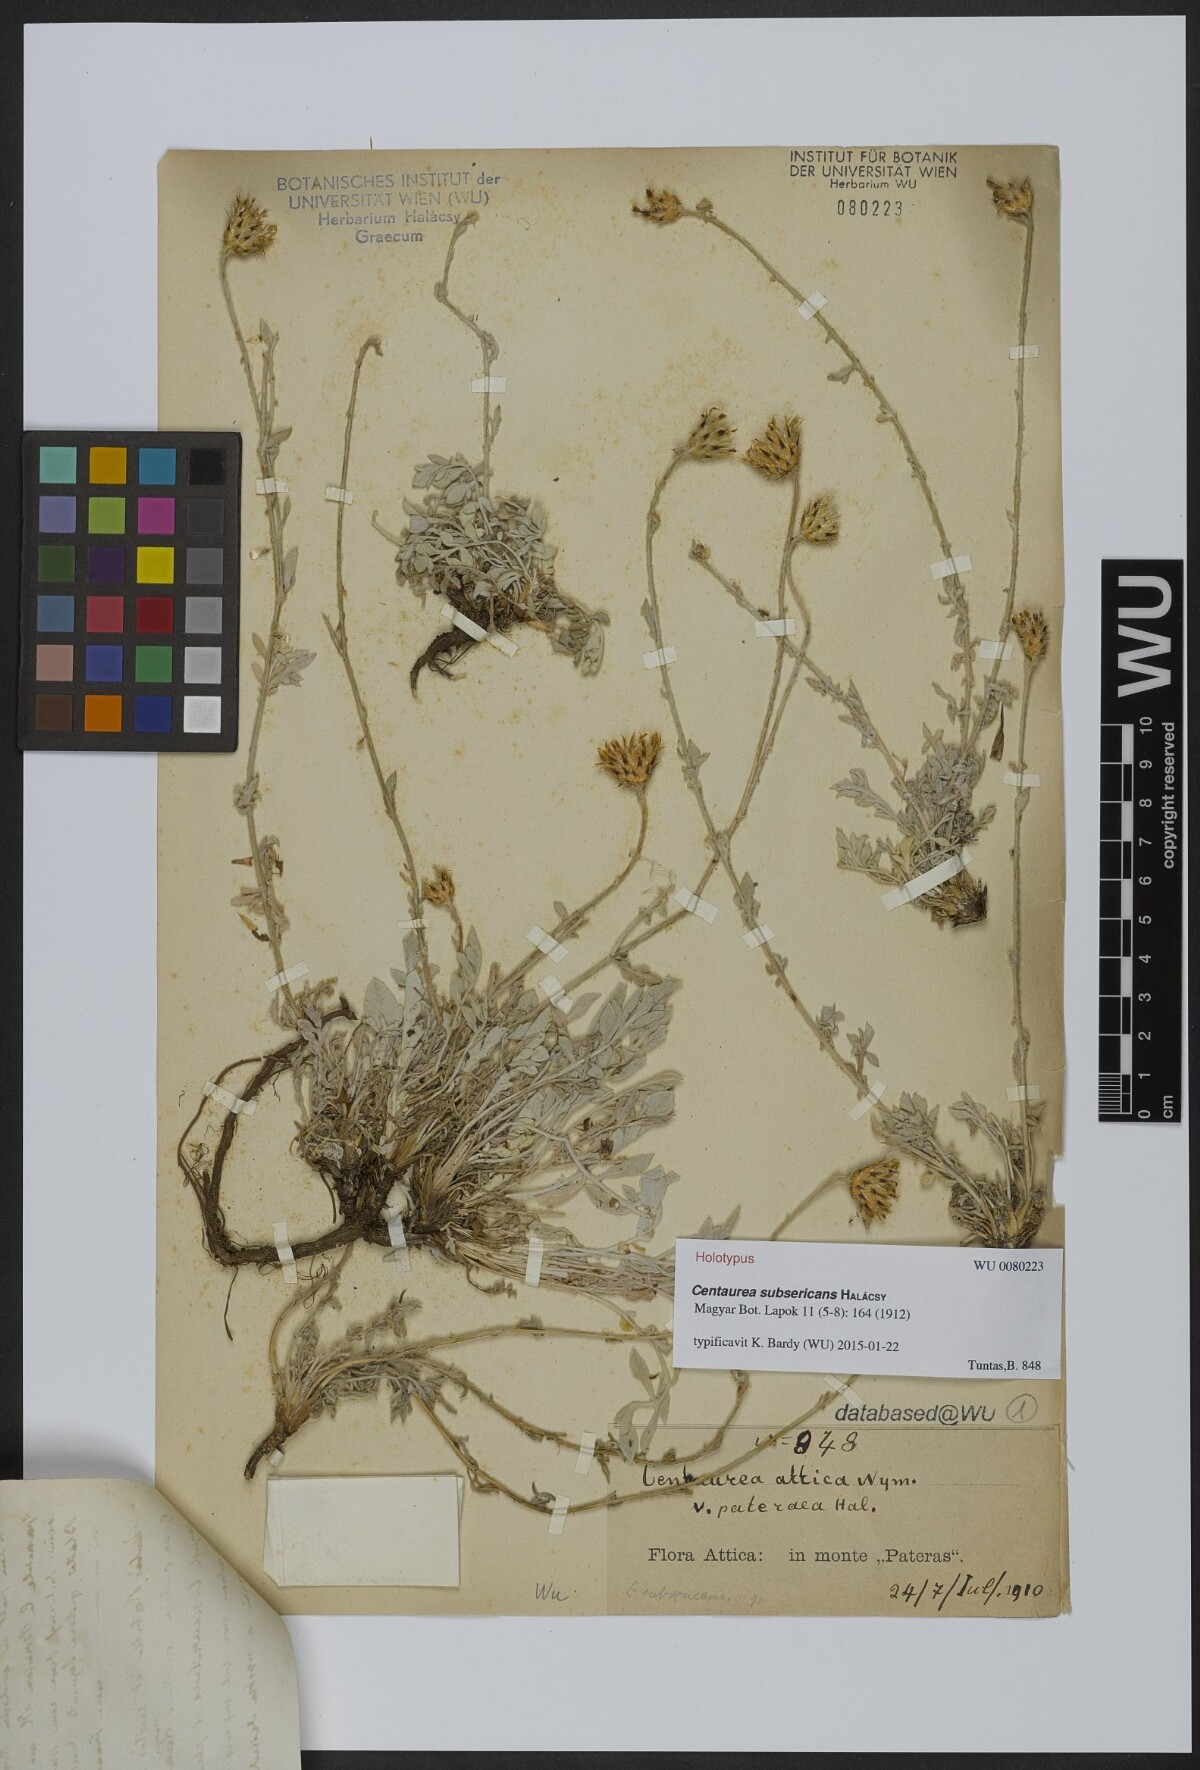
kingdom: Plantae
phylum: Tracheophyta
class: Magnoliopsida
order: Asterales
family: Asteraceae
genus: Centaurea
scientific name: Centaurea subsericans
